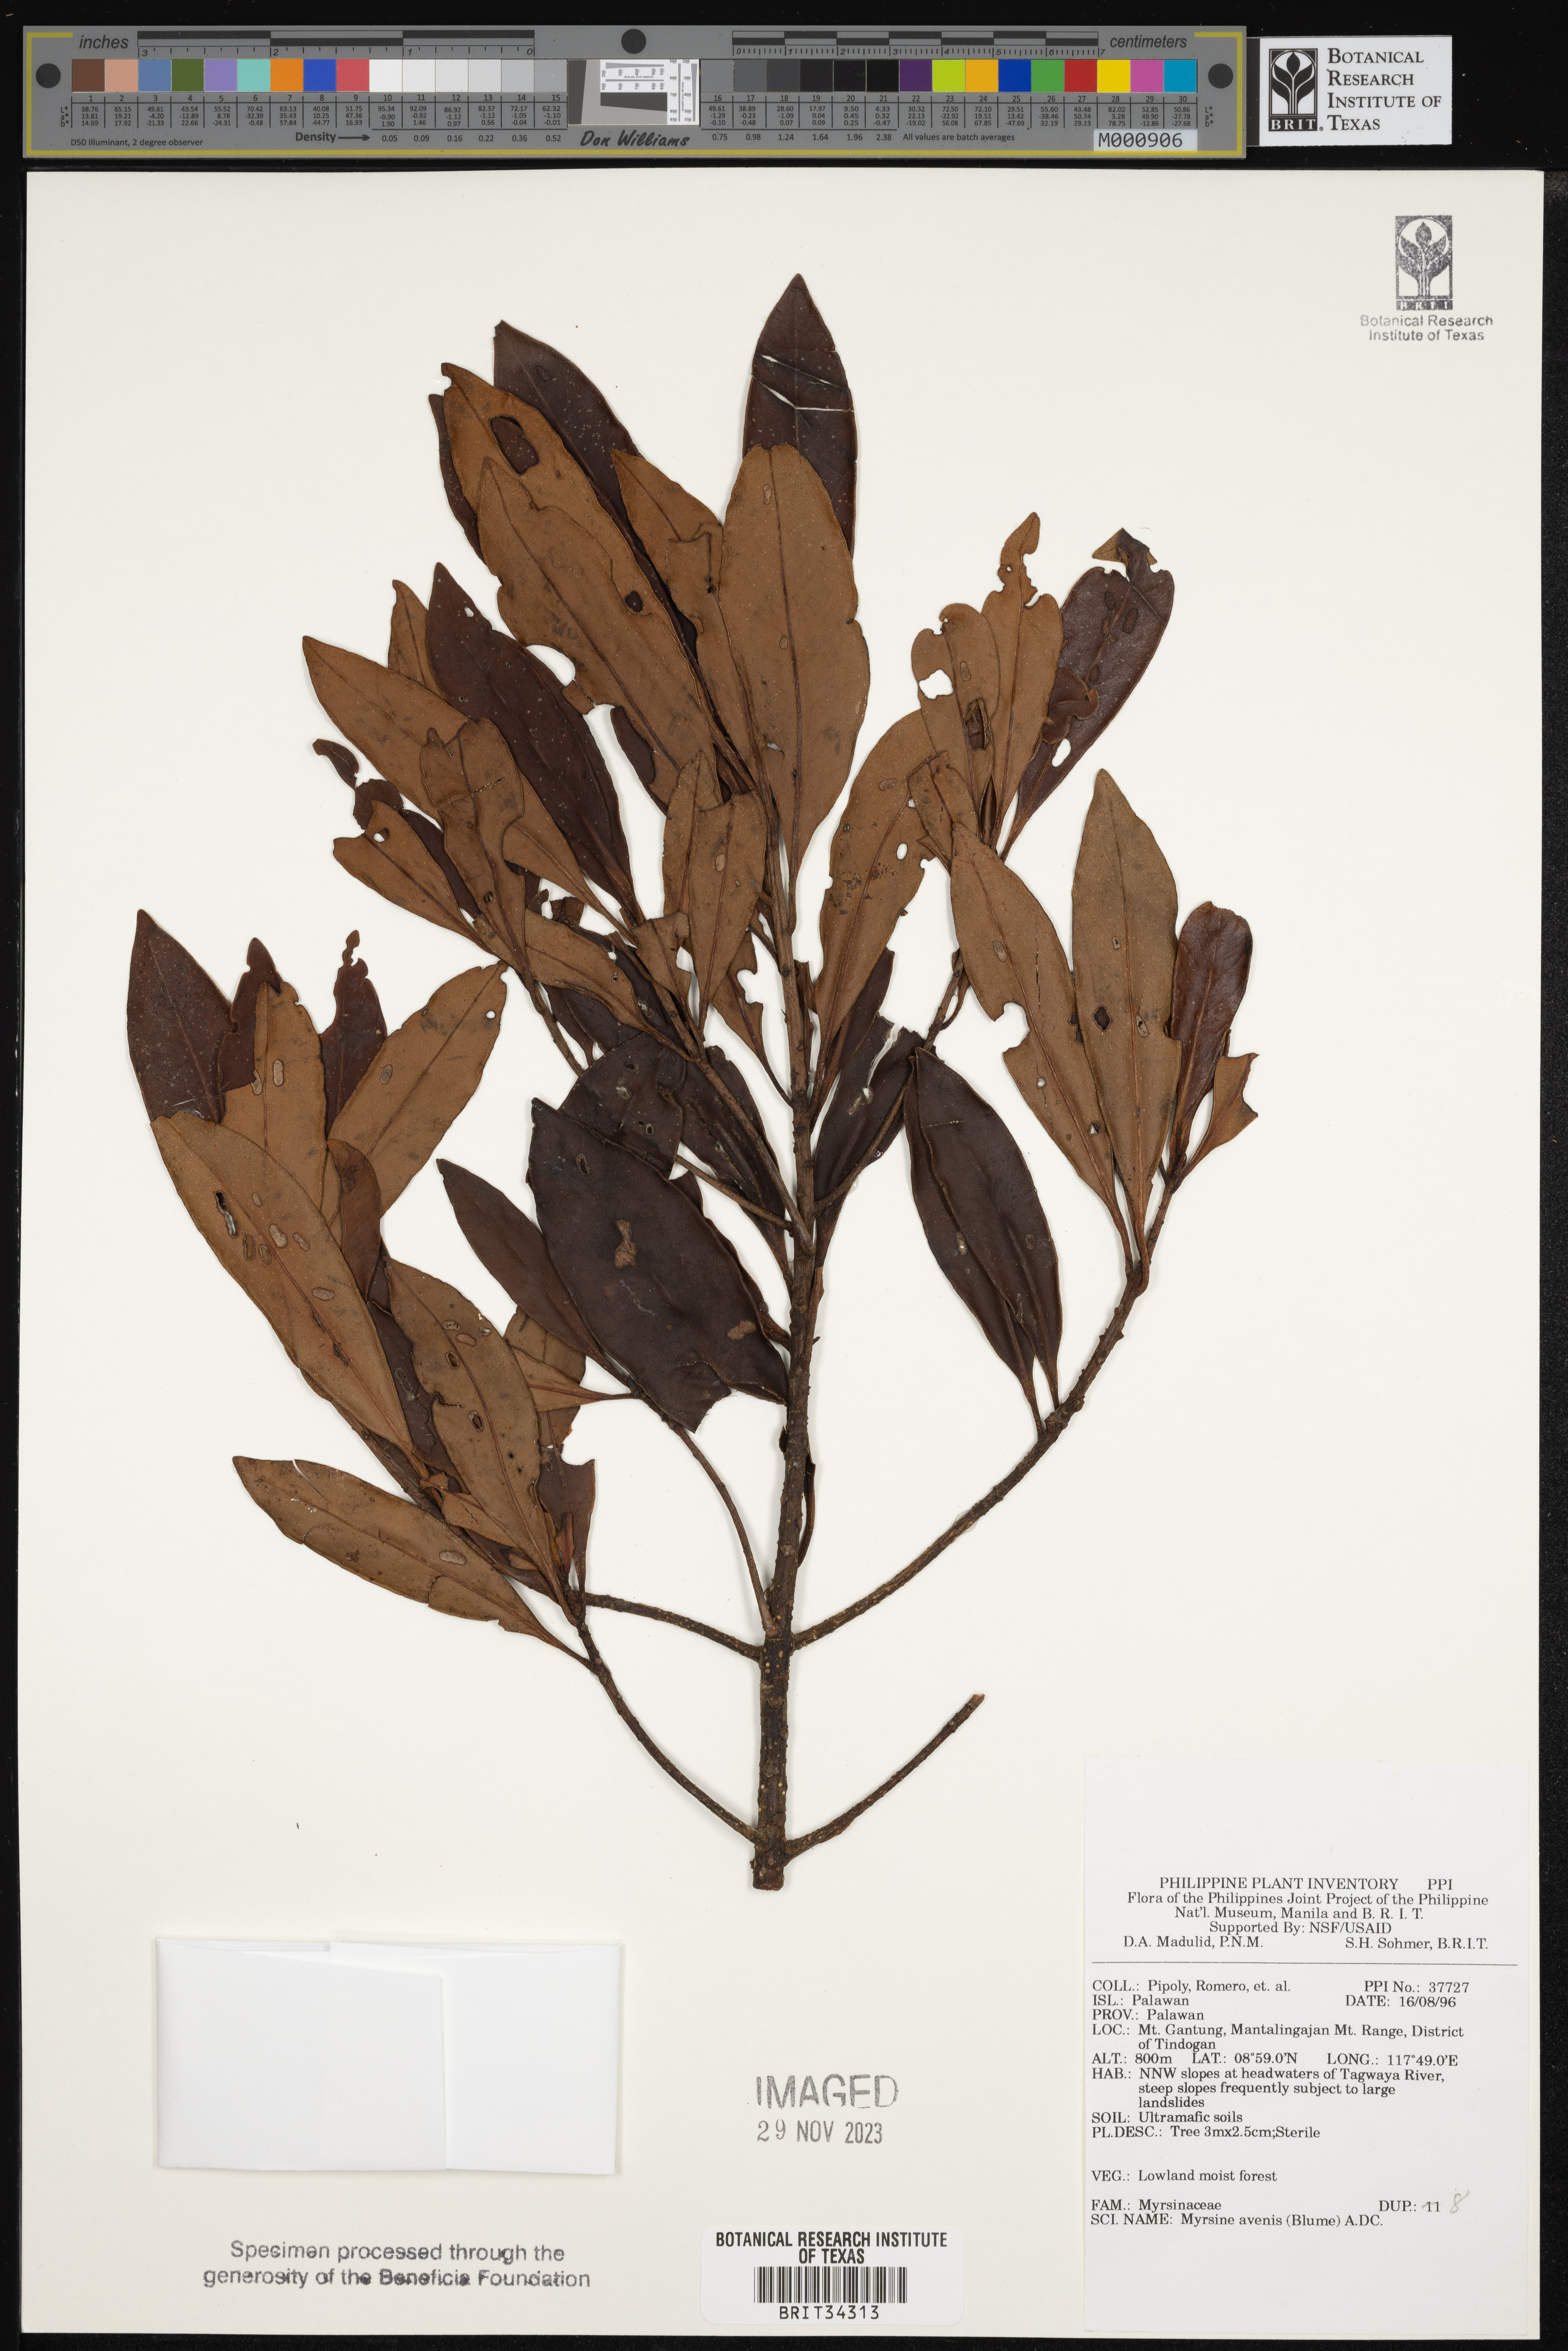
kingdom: Plantae
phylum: Tracheophyta
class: Magnoliopsida
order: Ericales
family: Primulaceae
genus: Myrsine
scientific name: Myrsine avenis
